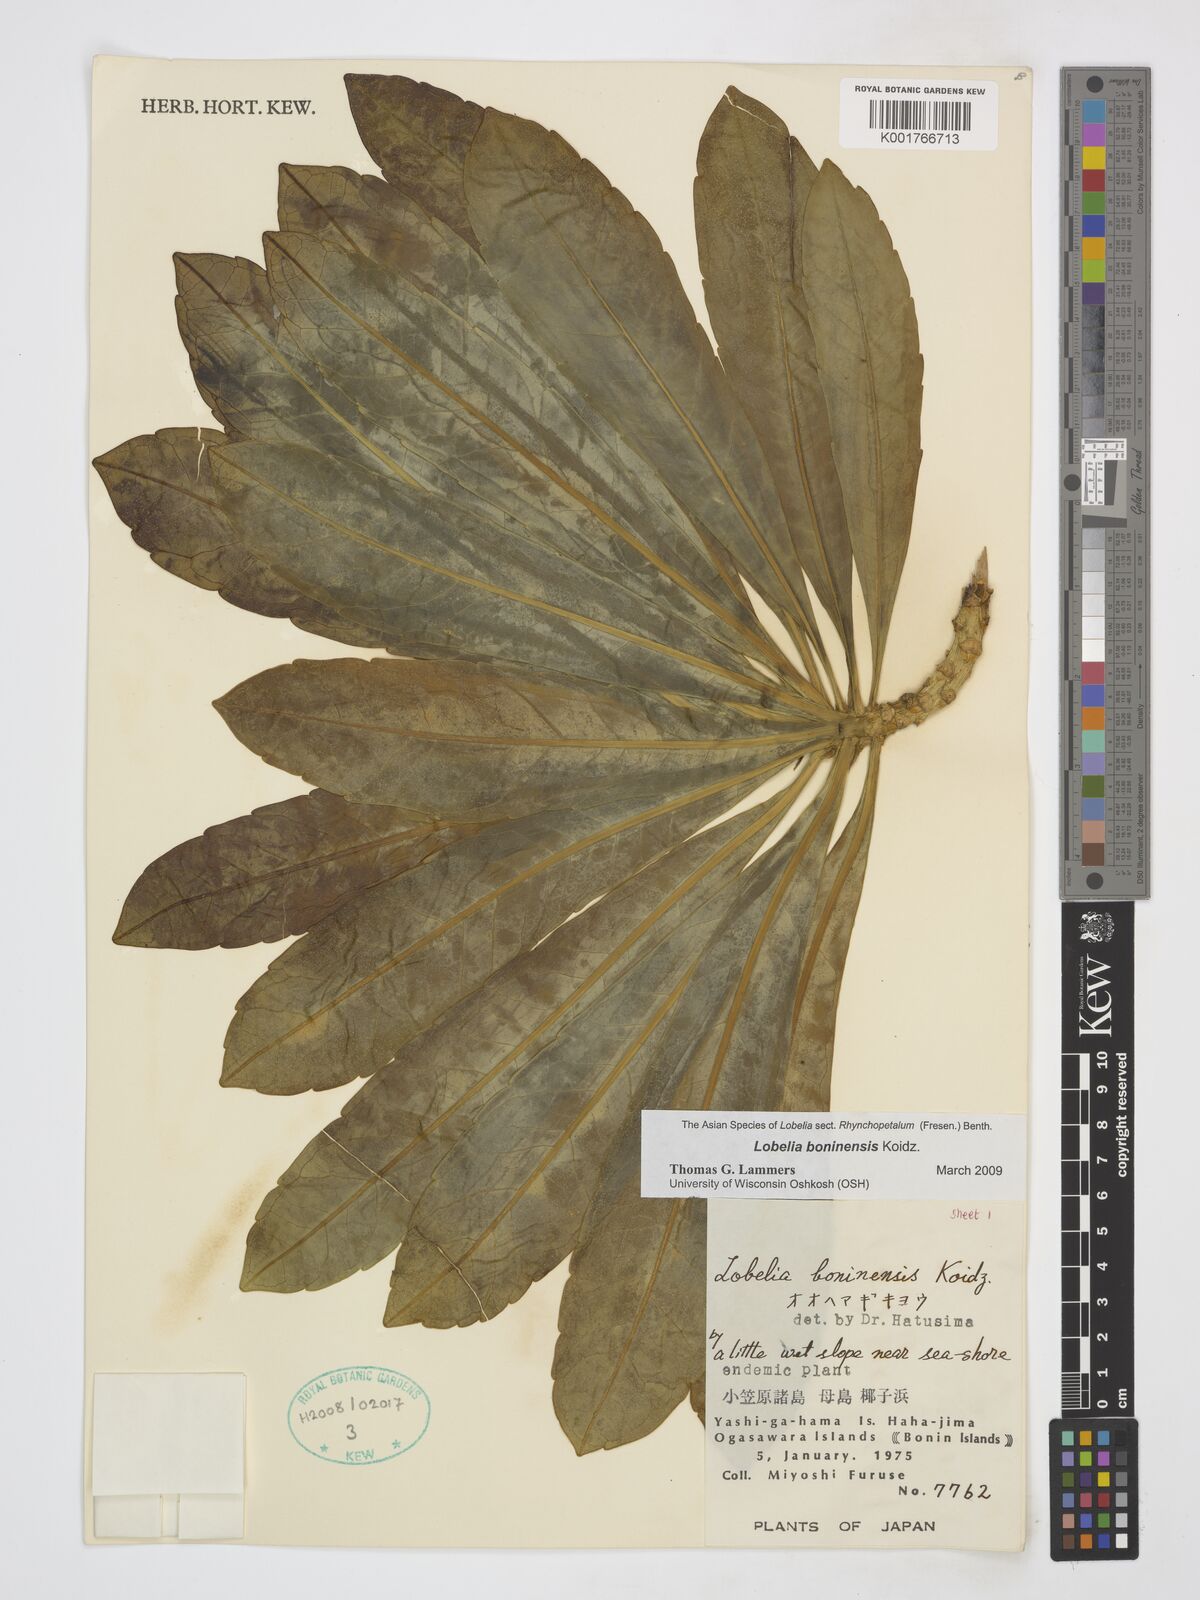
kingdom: Plantae
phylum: Tracheophyta
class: Magnoliopsida
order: Asterales
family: Campanulaceae
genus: Lobelia
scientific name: Lobelia boninensis
